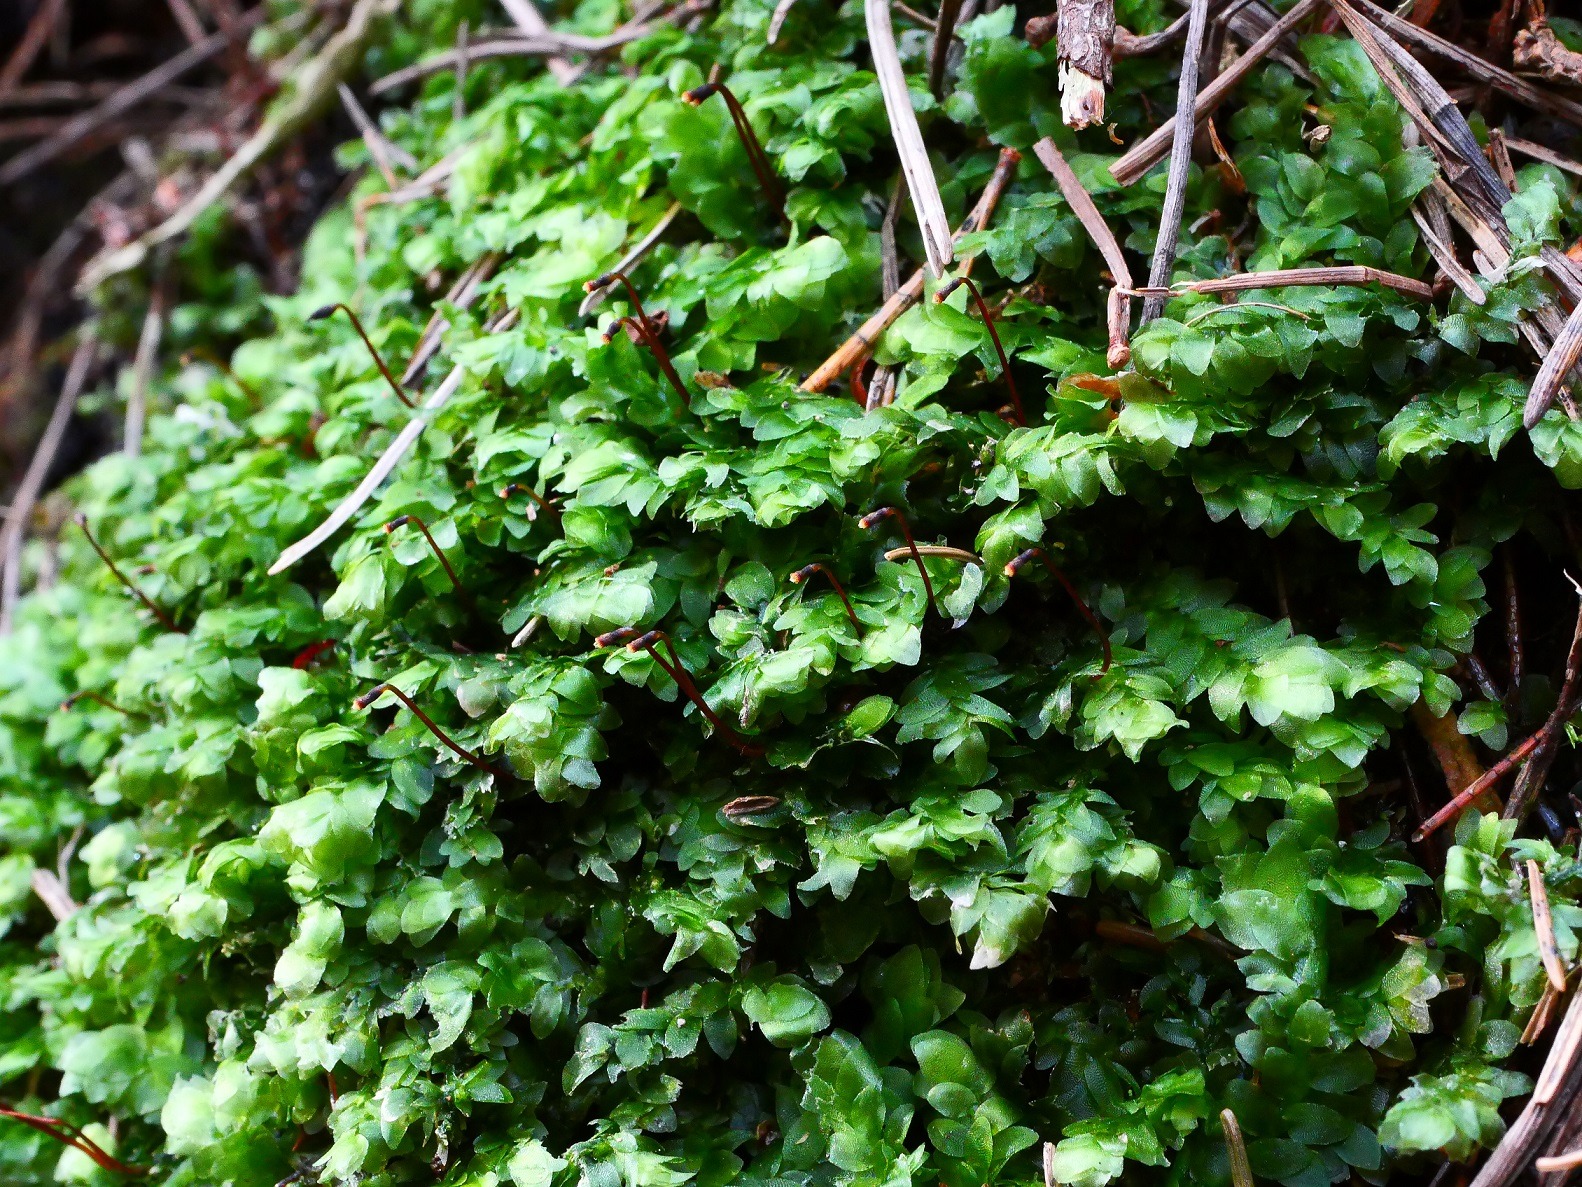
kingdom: Plantae
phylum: Bryophyta
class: Bryopsida
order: Hookeriales
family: Hookeriaceae
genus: Hookeria
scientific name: Hookeria lucens
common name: Skinnende dronningemos
